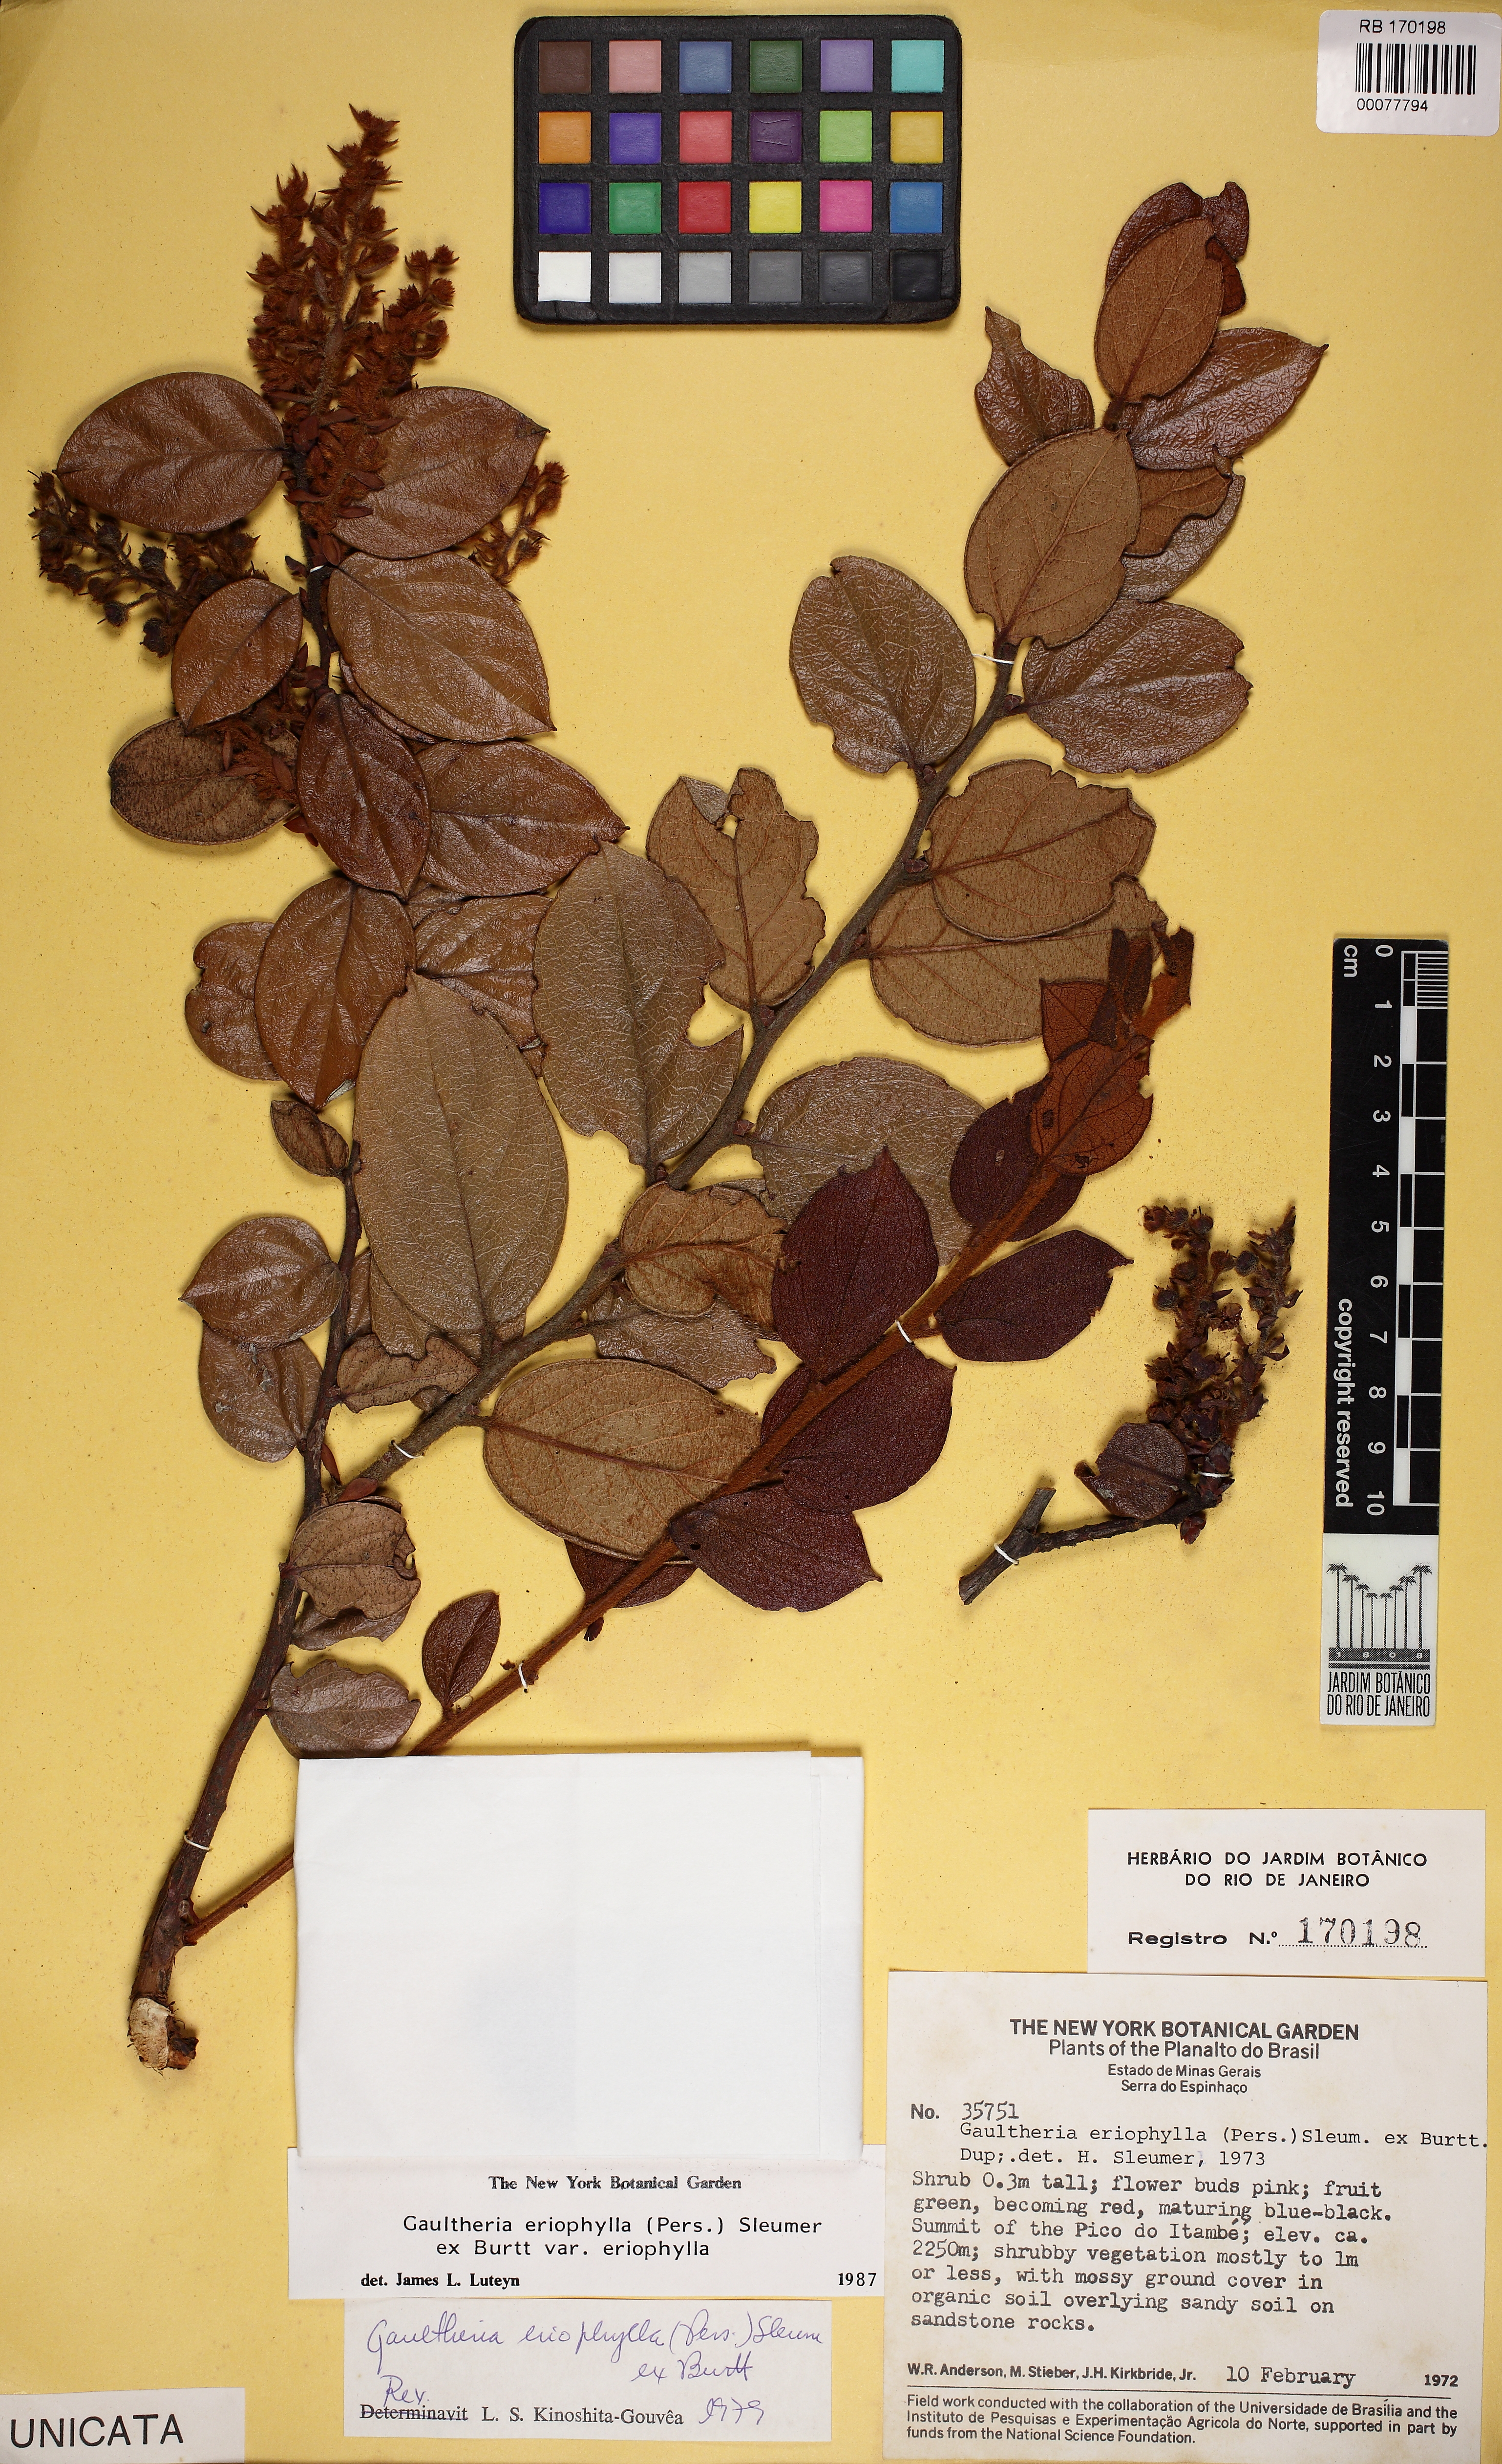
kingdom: Plantae
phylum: Tracheophyta
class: Magnoliopsida
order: Ericales
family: Ericaceae
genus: Gaultheria
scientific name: Gaultheria eriophylla
